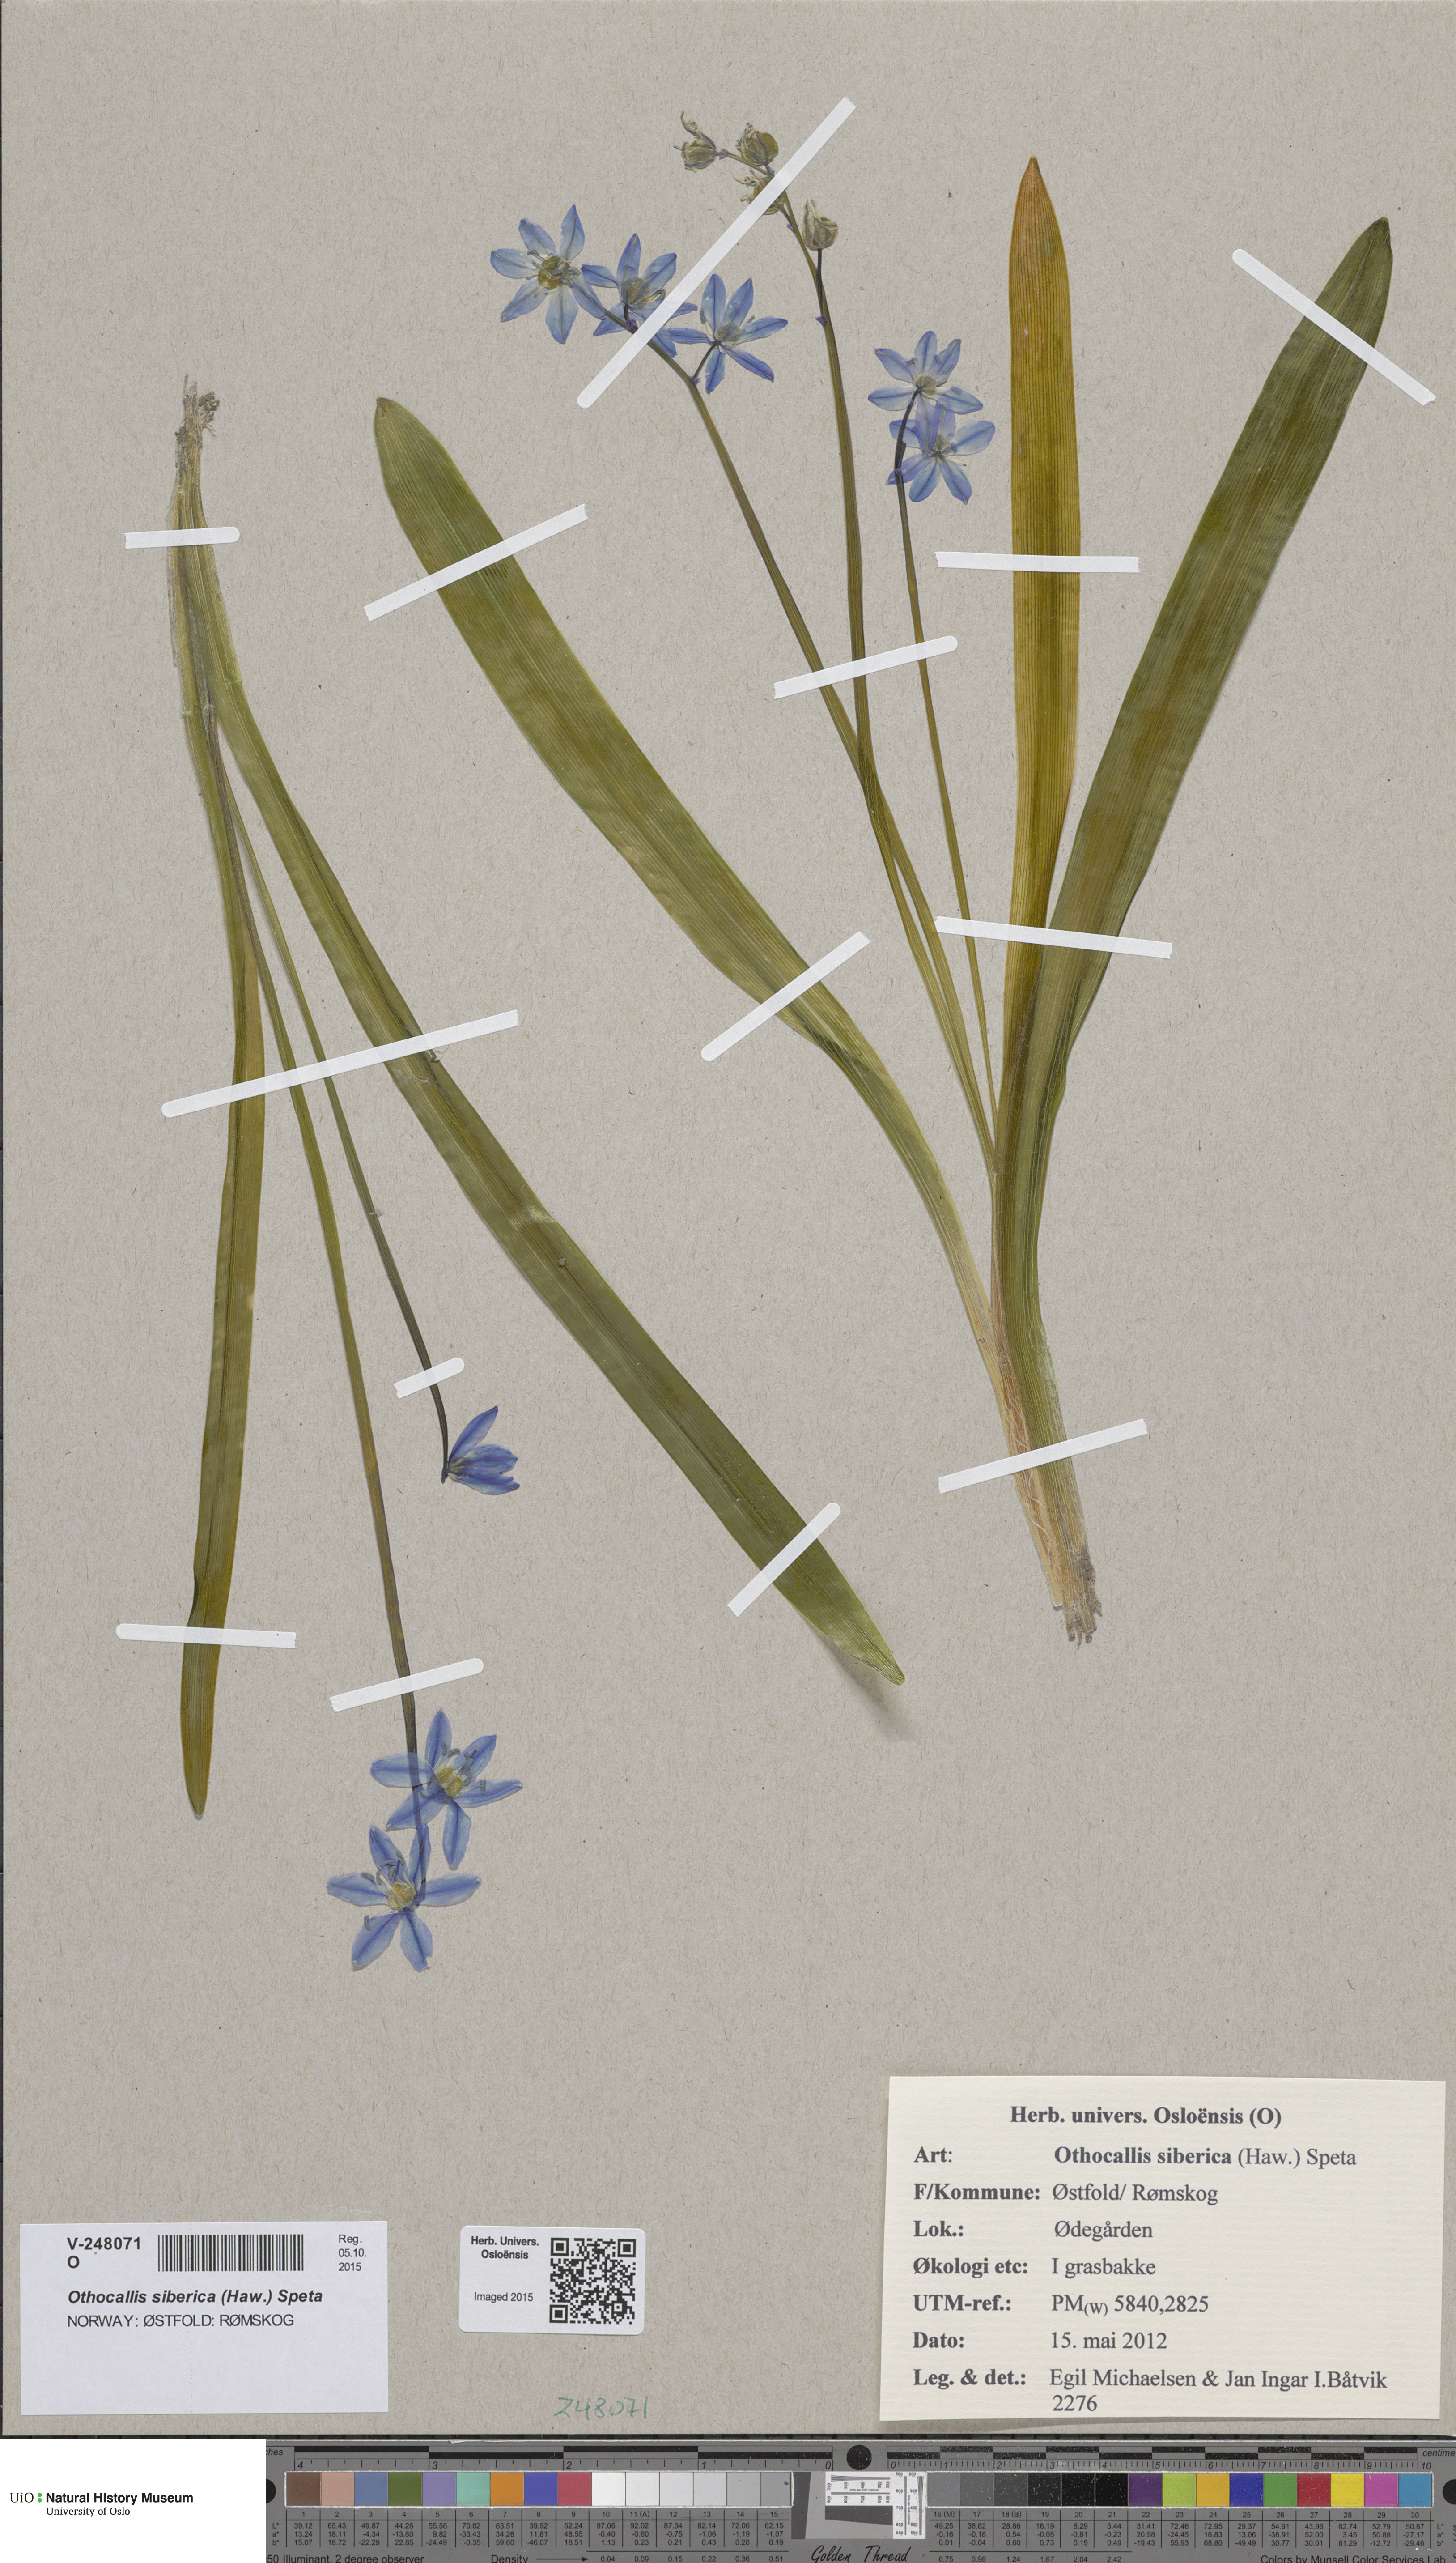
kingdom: Plantae
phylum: Tracheophyta
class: Liliopsida
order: Asparagales
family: Asparagaceae
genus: Scilla
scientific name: Scilla siberica
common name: Siberian squill
